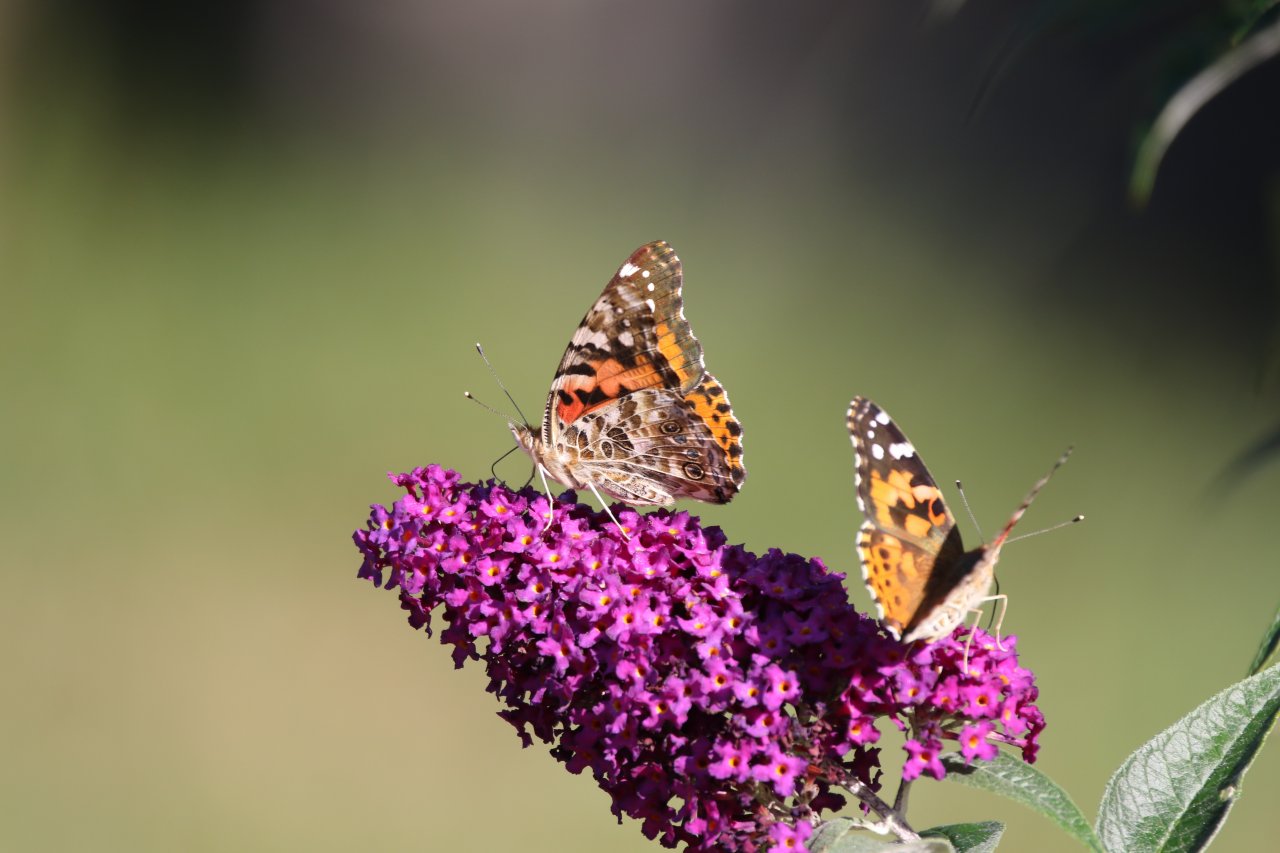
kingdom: Animalia
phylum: Arthropoda
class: Insecta
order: Lepidoptera
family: Nymphalidae
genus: Vanessa
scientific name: Vanessa cardui
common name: Painted Lady
